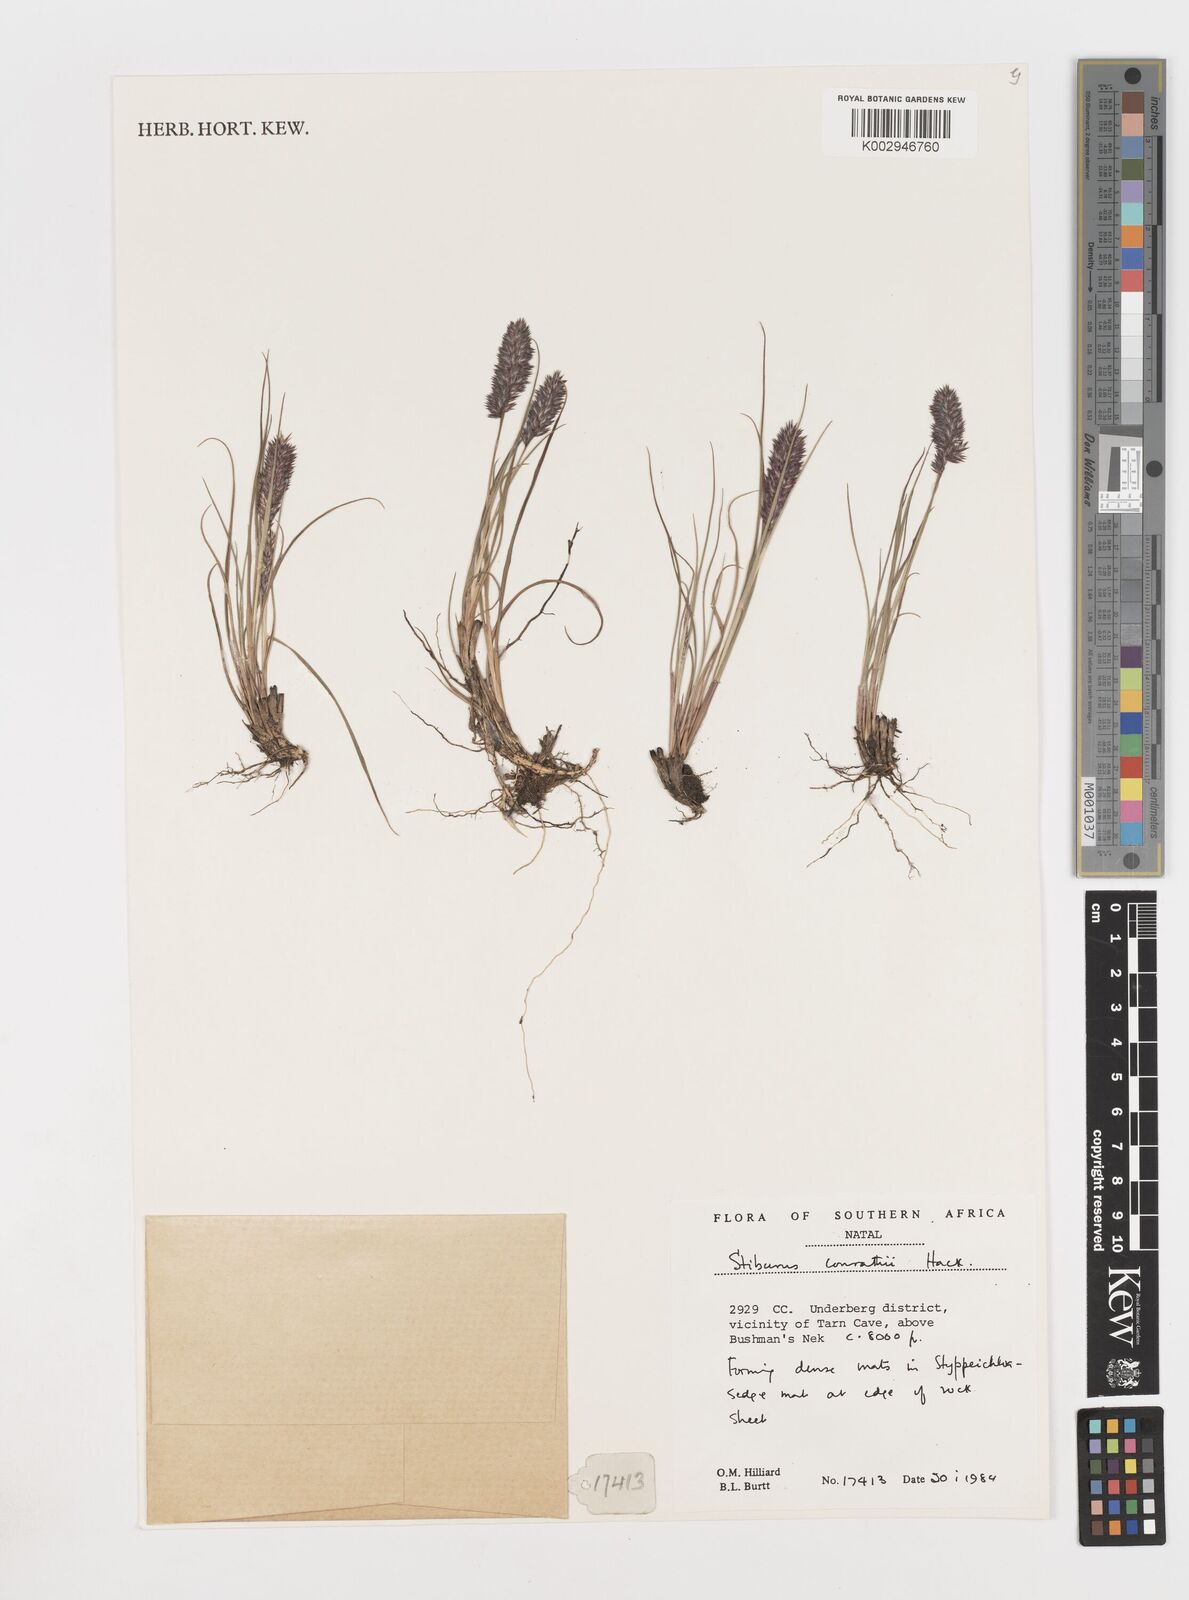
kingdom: Plantae
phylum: Tracheophyta
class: Liliopsida
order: Poales
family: Poaceae
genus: Stiburus
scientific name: Stiburus conrathii
